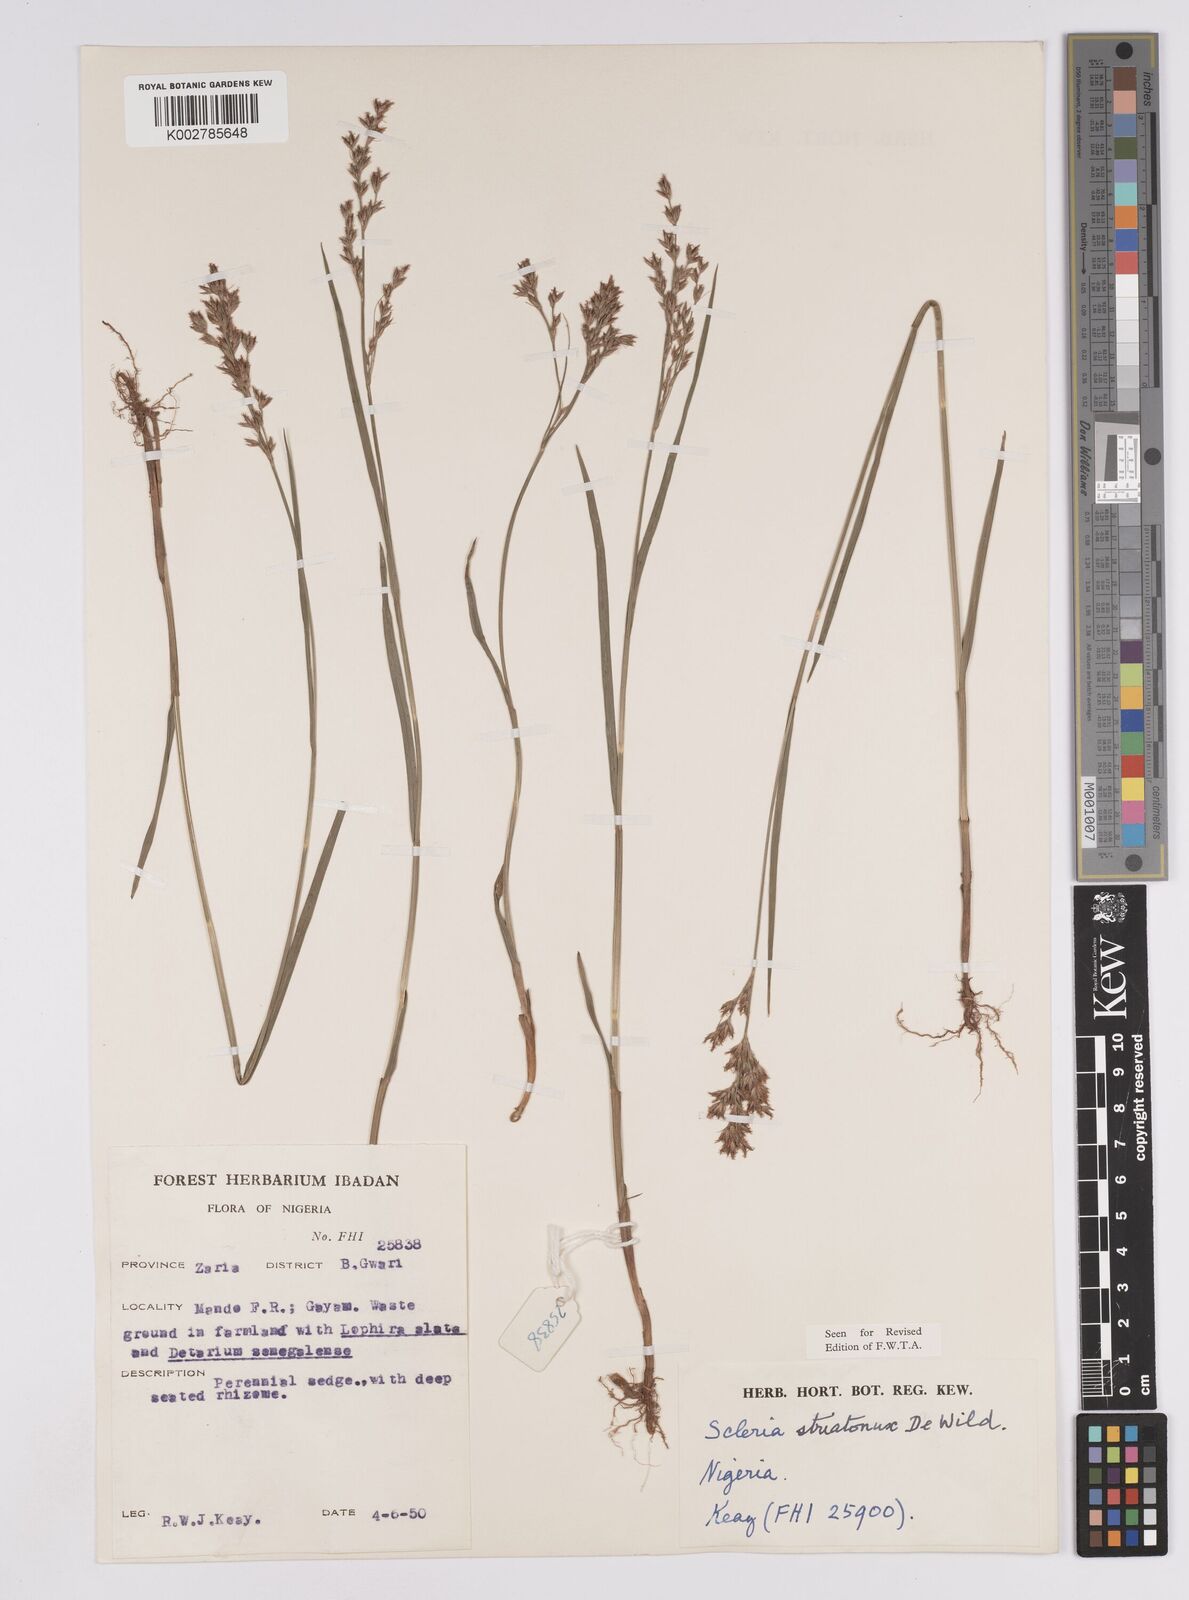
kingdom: Plantae
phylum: Tracheophyta
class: Liliopsida
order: Poales
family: Cyperaceae
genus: Scleria
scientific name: Scleria woodii
